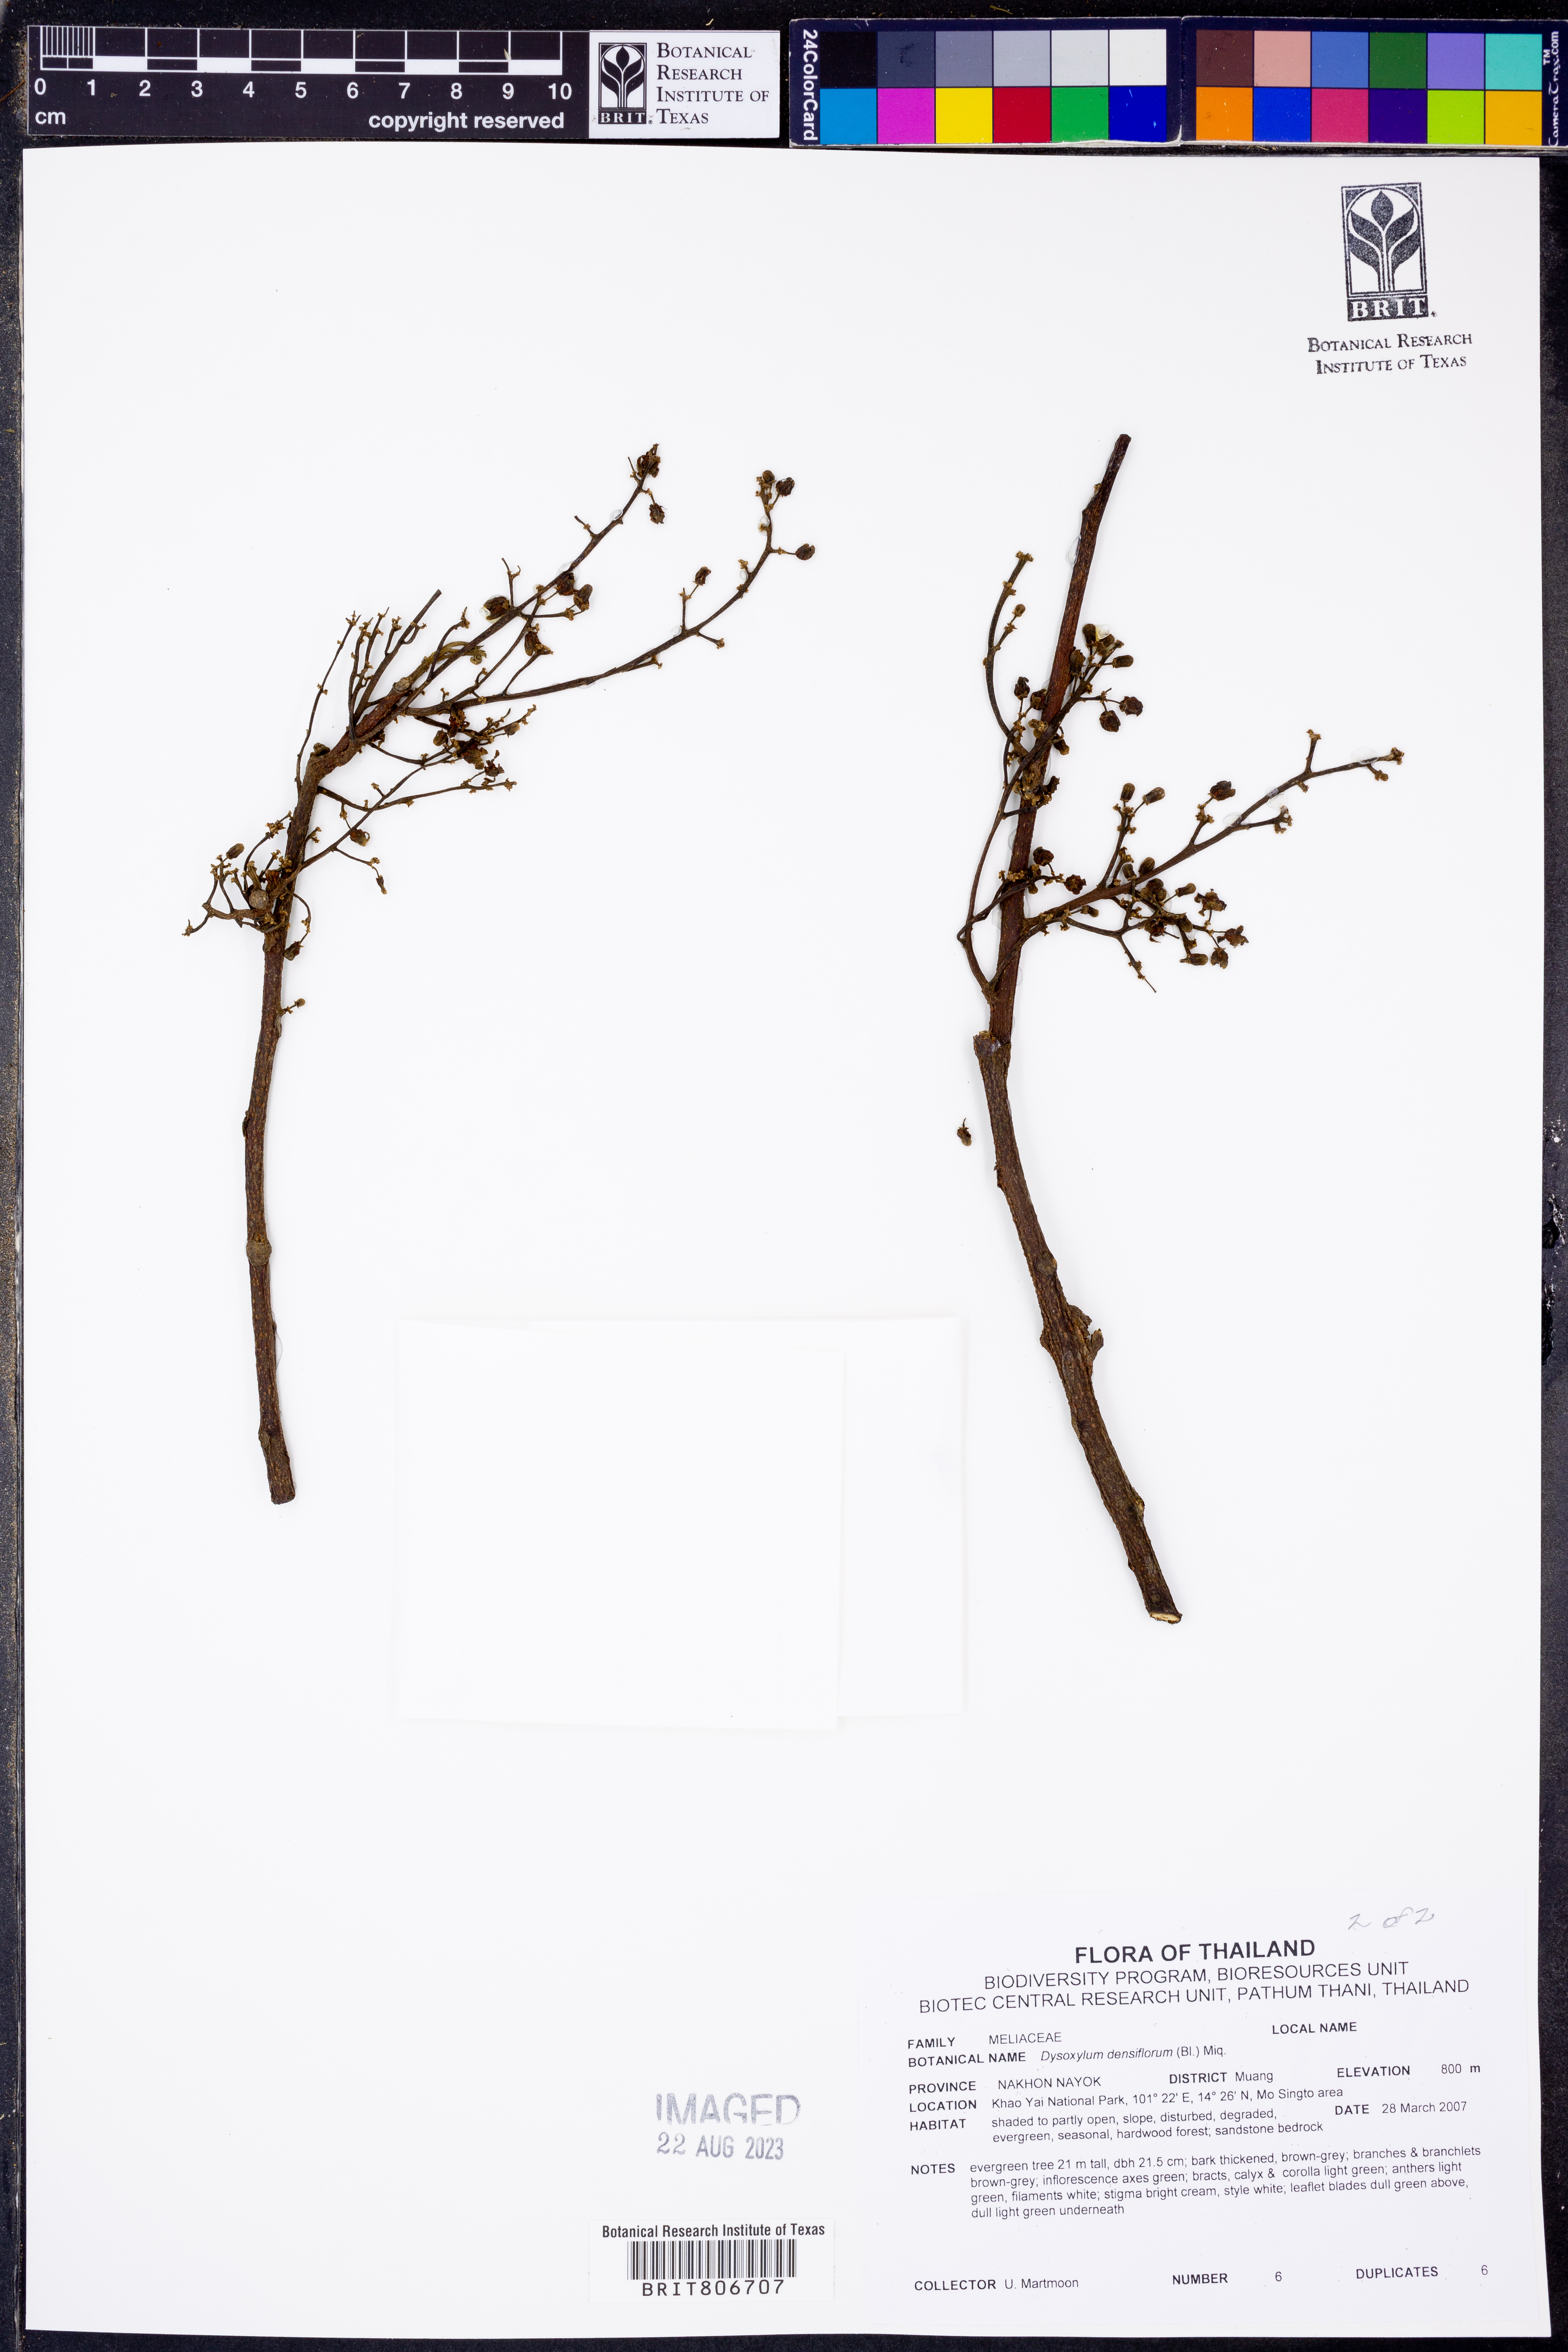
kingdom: Plantae
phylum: Tracheophyta
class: Magnoliopsida
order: Sapindales
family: Meliaceae
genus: Epicharis
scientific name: Epicharis densiflora
